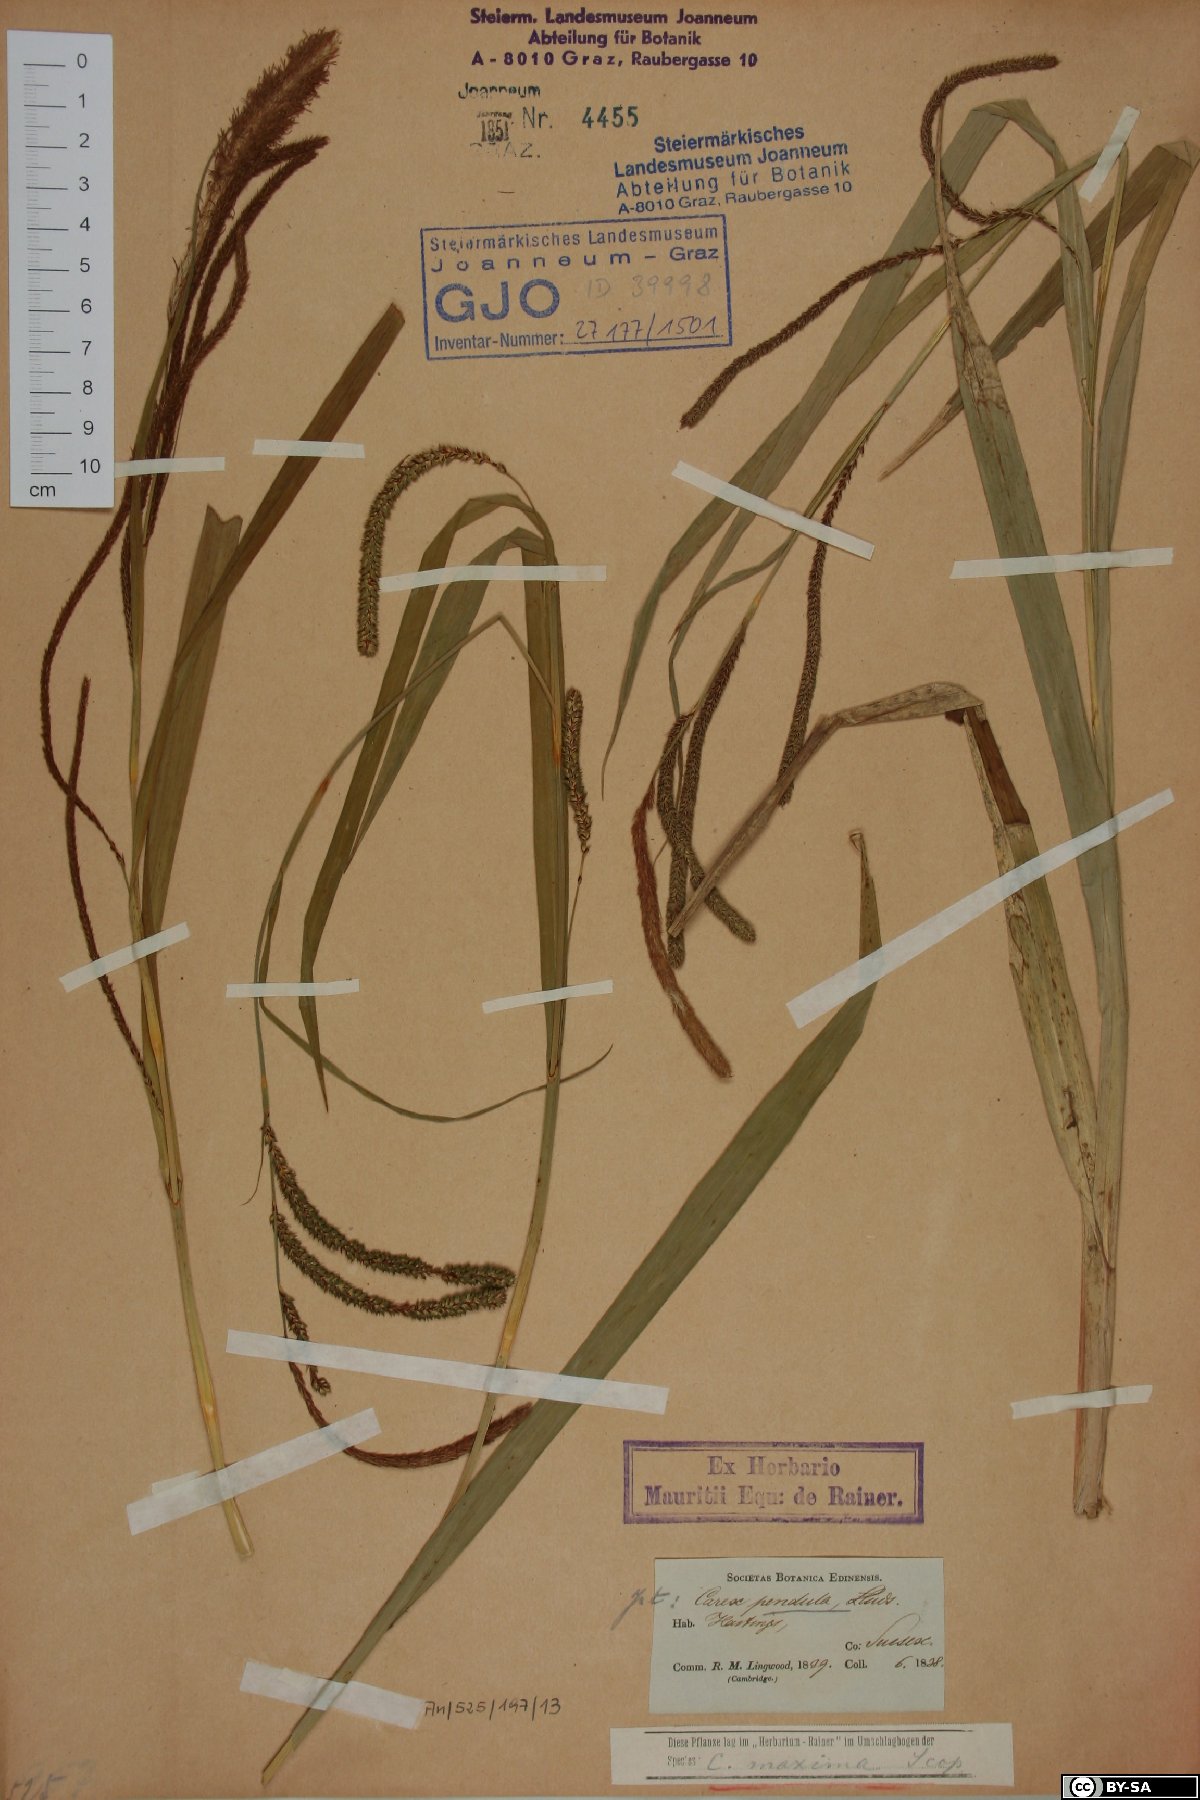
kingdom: Plantae
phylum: Tracheophyta
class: Liliopsida
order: Poales
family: Cyperaceae
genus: Carex
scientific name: Carex pendula
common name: Pendulous sedge
